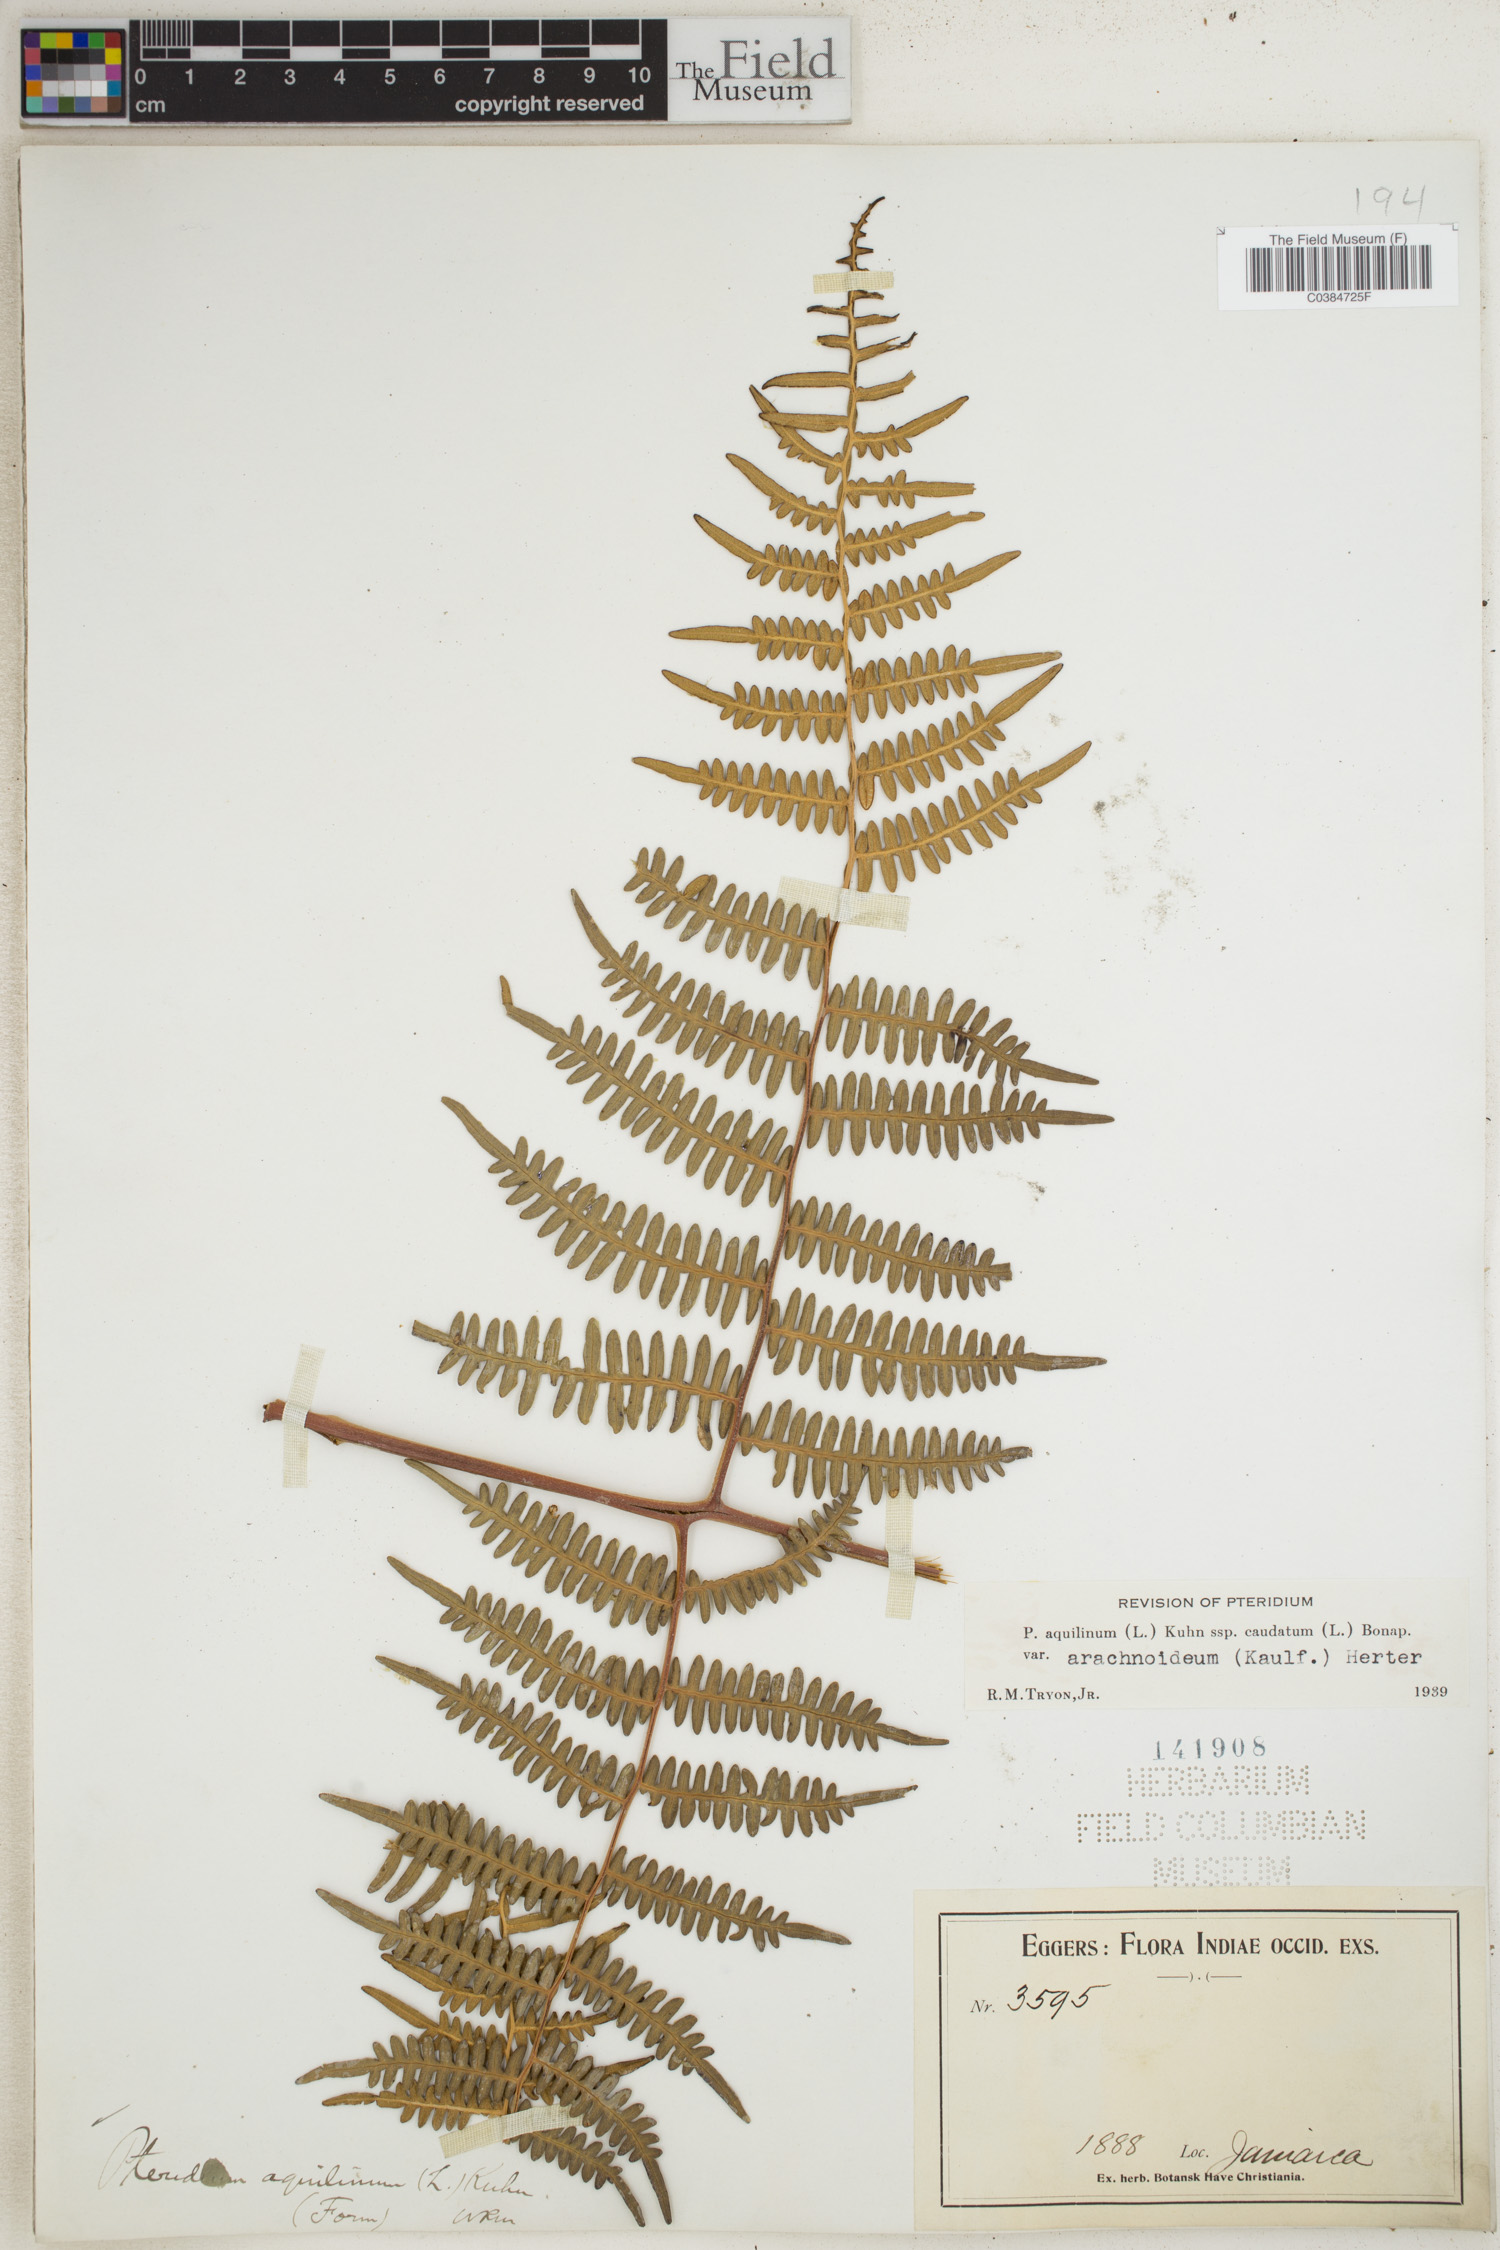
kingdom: Plantae
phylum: Tracheophyta
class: Polypodiopsida
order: Polypodiales
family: Dennstaedtiaceae
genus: Pteridium
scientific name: Pteridium esculentum
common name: Bracken fern
